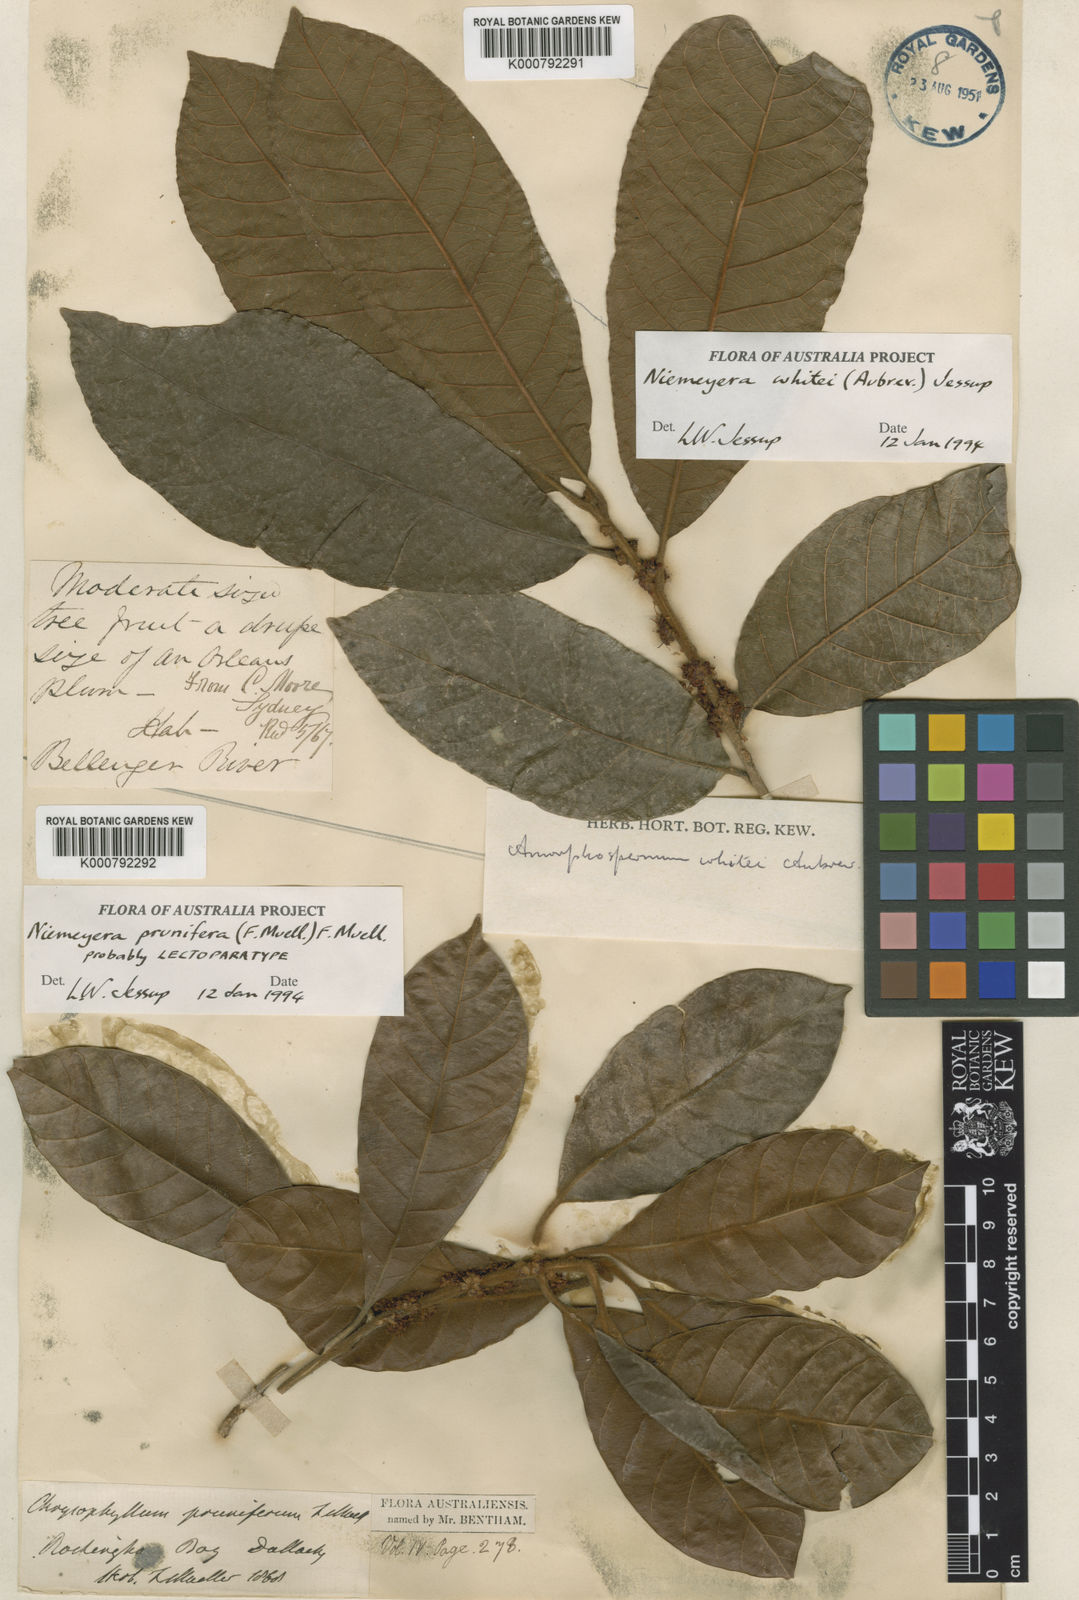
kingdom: Plantae
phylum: Tracheophyta
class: Magnoliopsida
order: Ericales
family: Sapotaceae
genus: Niemeyera
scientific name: Niemeyera prunifera
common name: Brown pearwood
